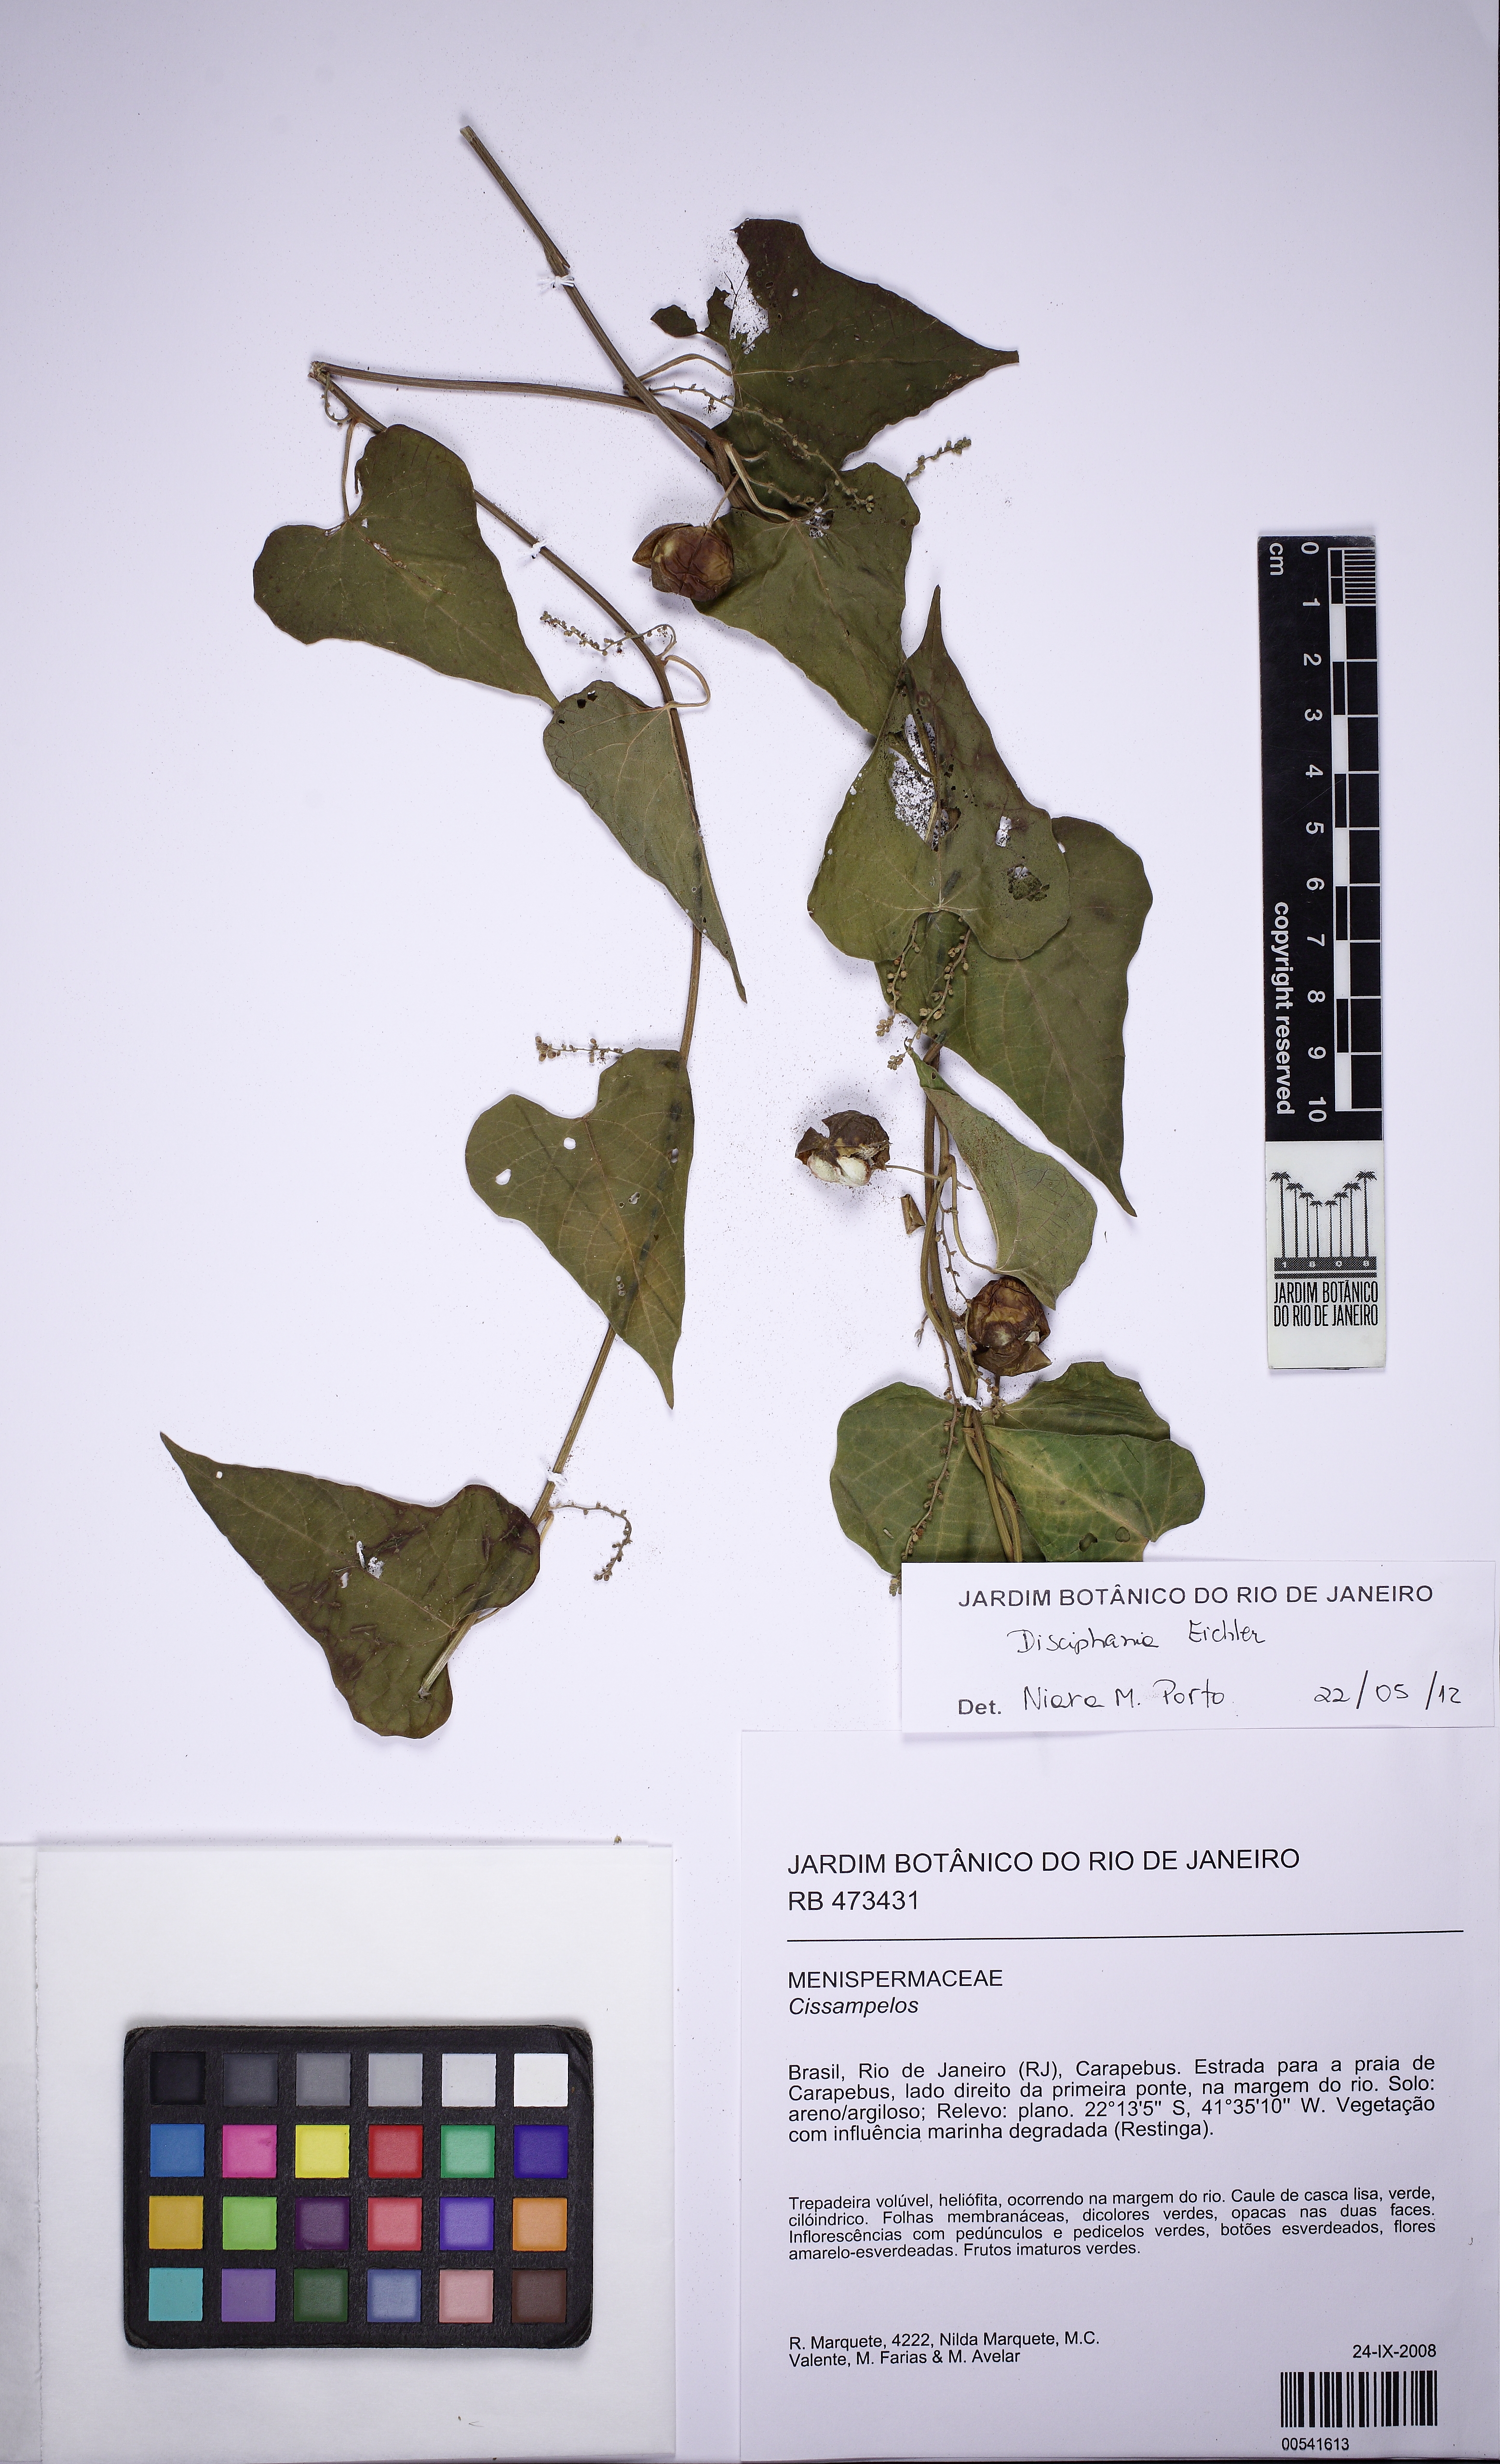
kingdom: Plantae
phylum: Tracheophyta
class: Magnoliopsida
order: Malpighiales
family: Euphorbiaceae
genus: Romanoa
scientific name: Romanoa tamnoides
